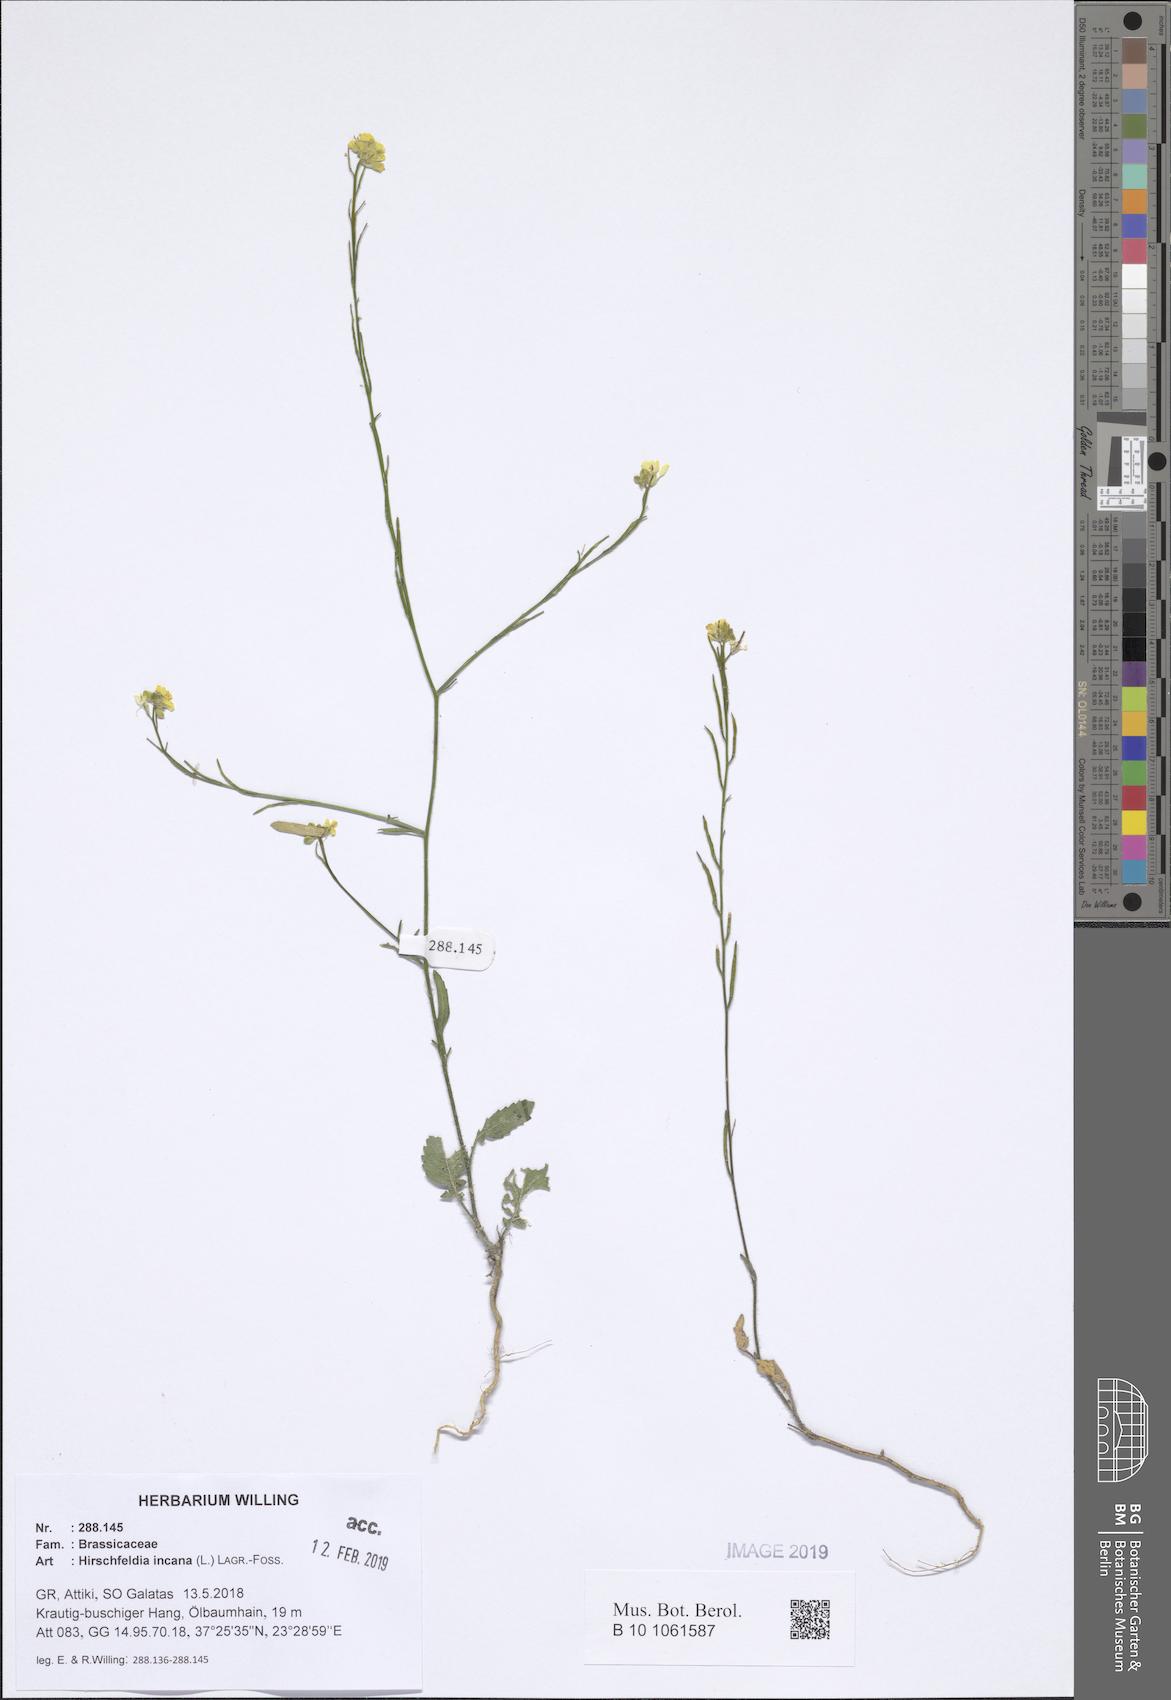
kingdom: Plantae
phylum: Tracheophyta
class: Magnoliopsida
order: Brassicales
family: Brassicaceae
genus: Hirschfeldia
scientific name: Hirschfeldia incana
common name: Hoary mustard
